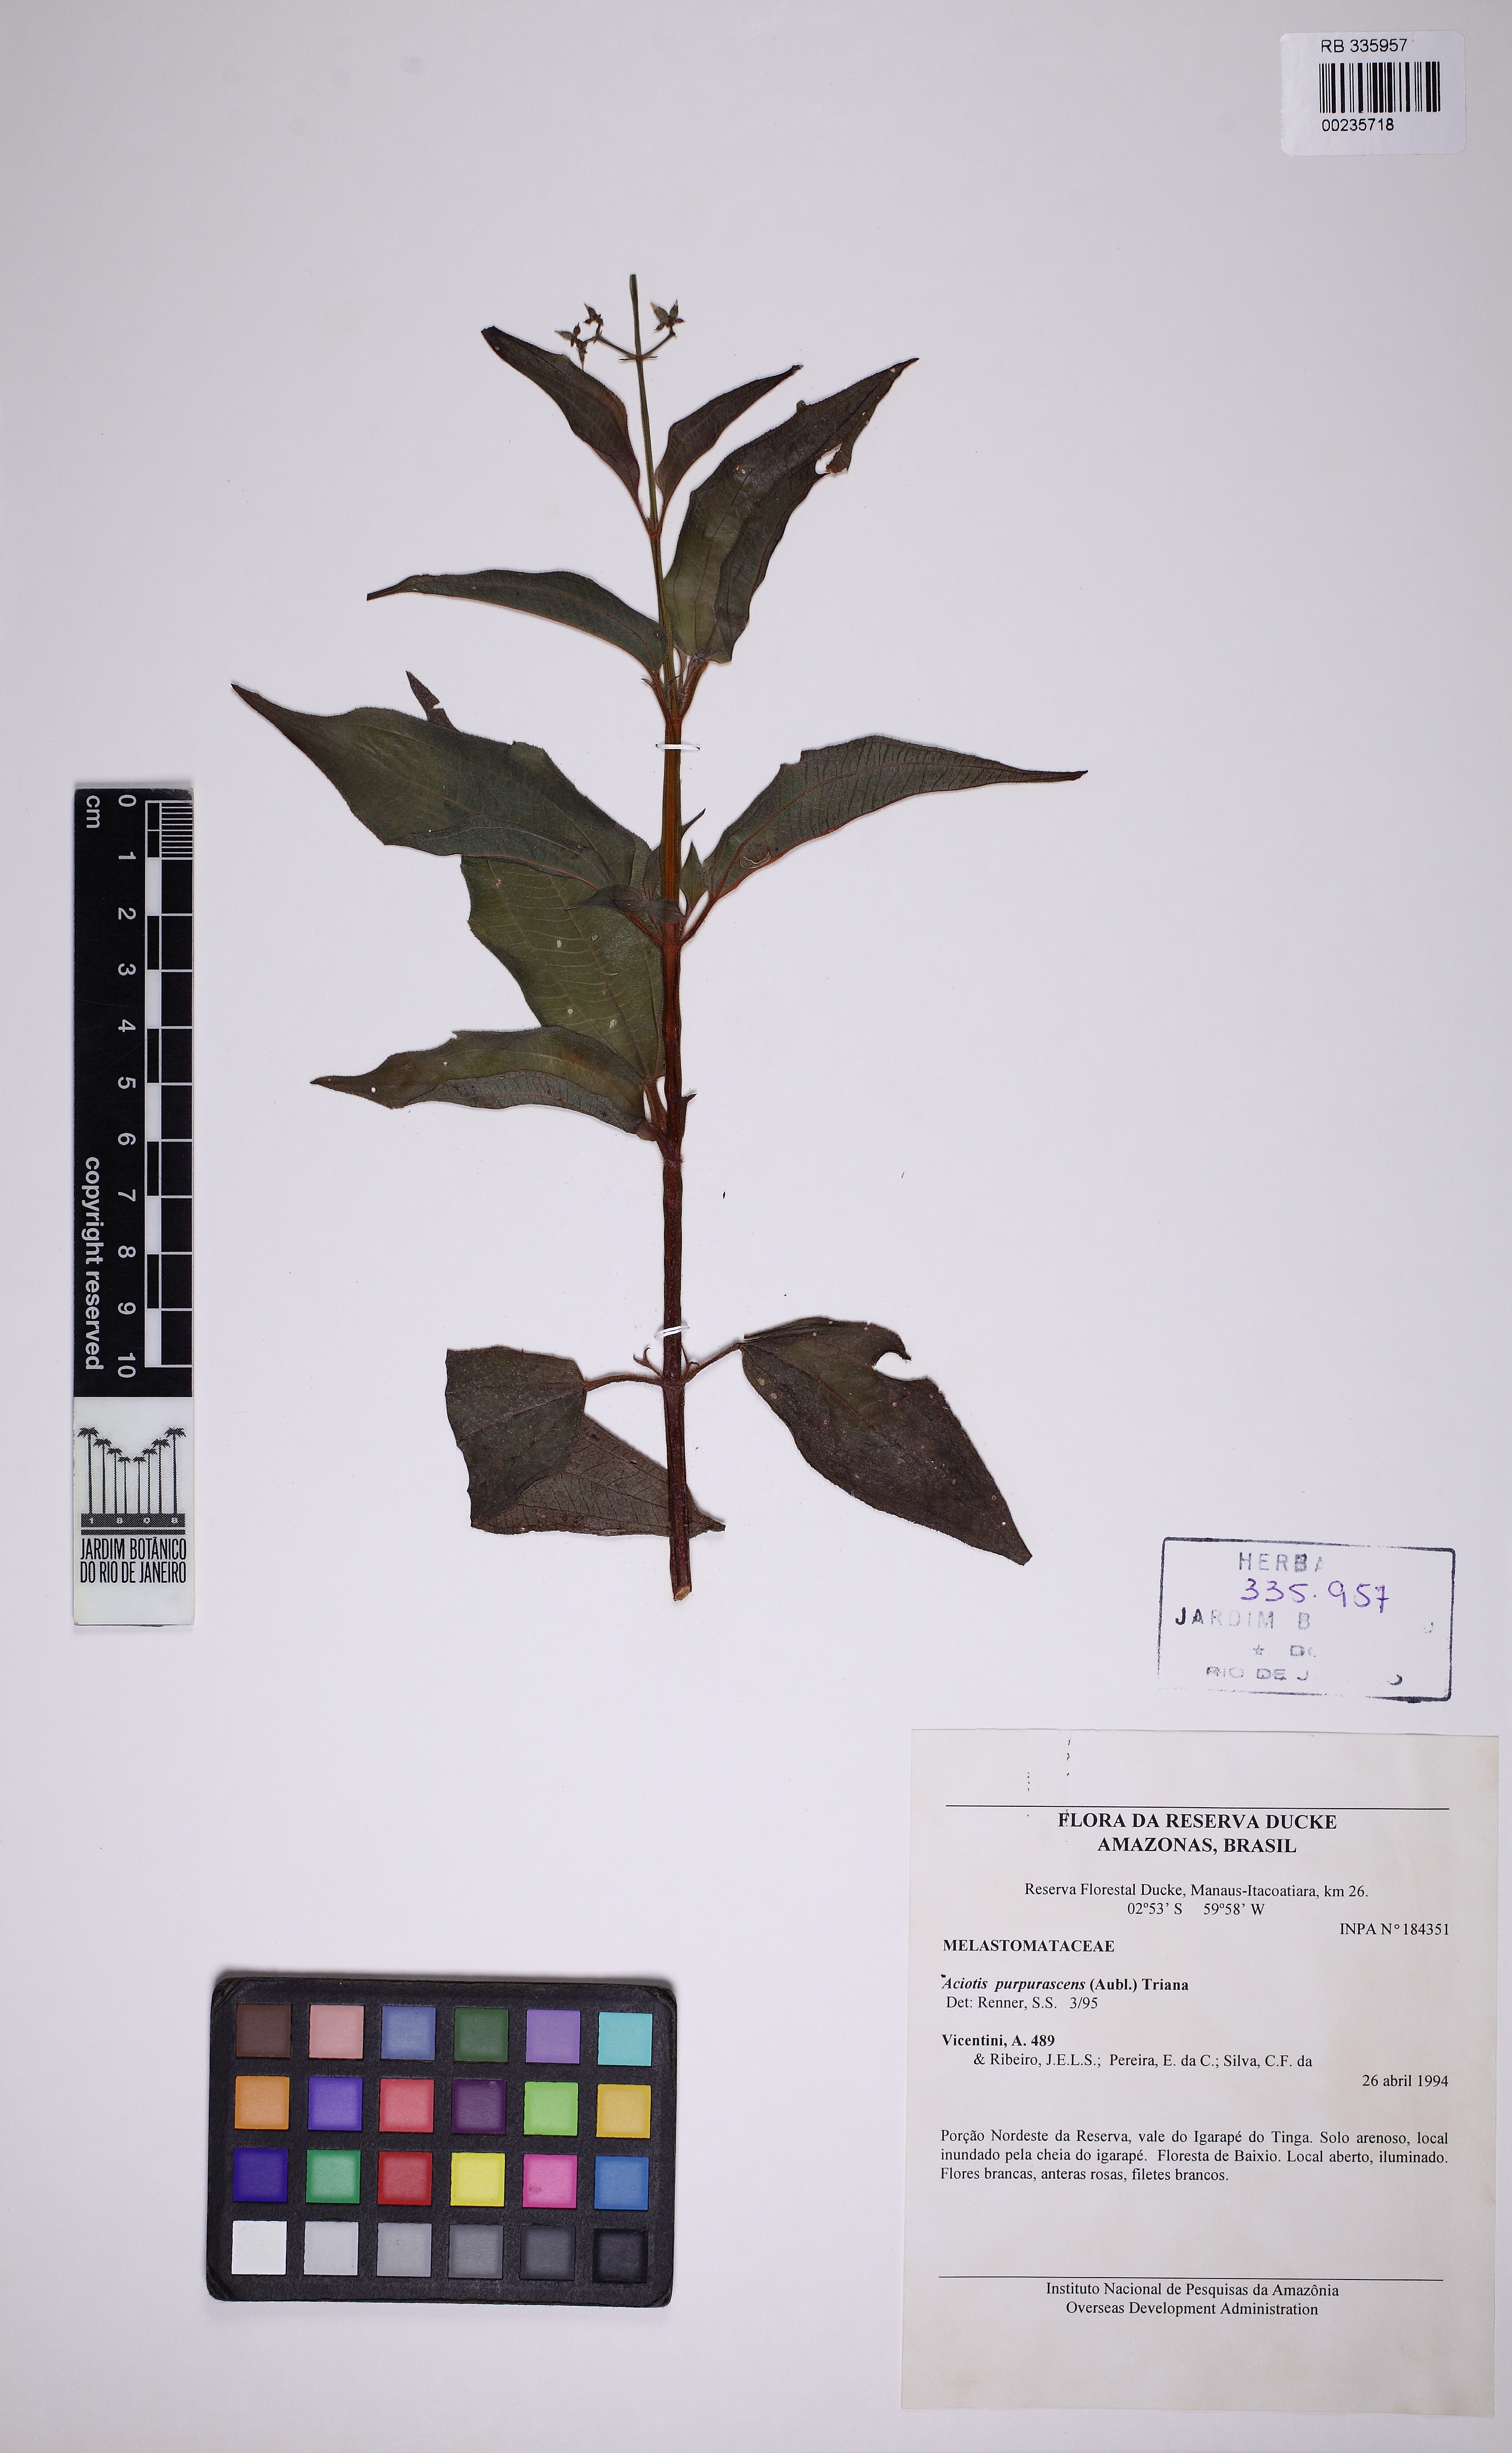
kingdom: Plantae
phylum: Tracheophyta
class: Magnoliopsida
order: Myrtales
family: Melastomataceae
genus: Aciotis
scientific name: Aciotis purpurascens
